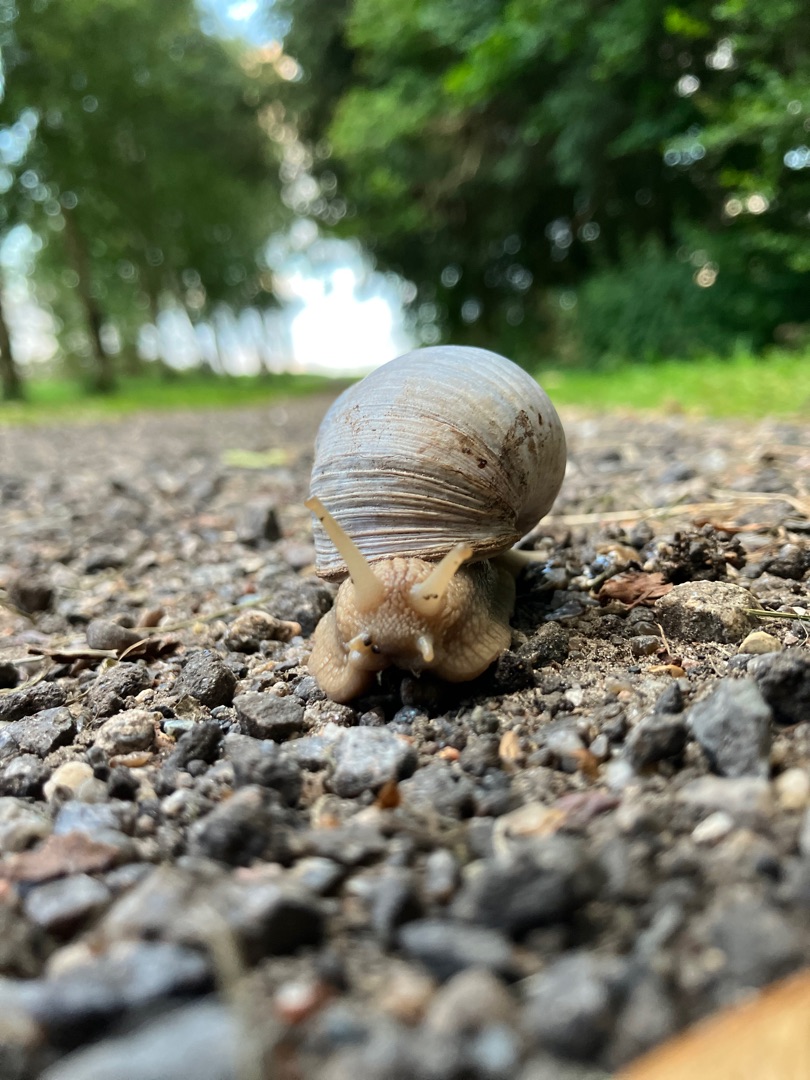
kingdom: Animalia
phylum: Mollusca
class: Gastropoda
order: Stylommatophora
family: Helicidae
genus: Helix
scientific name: Helix pomatia
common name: Vinbjergsnegl
